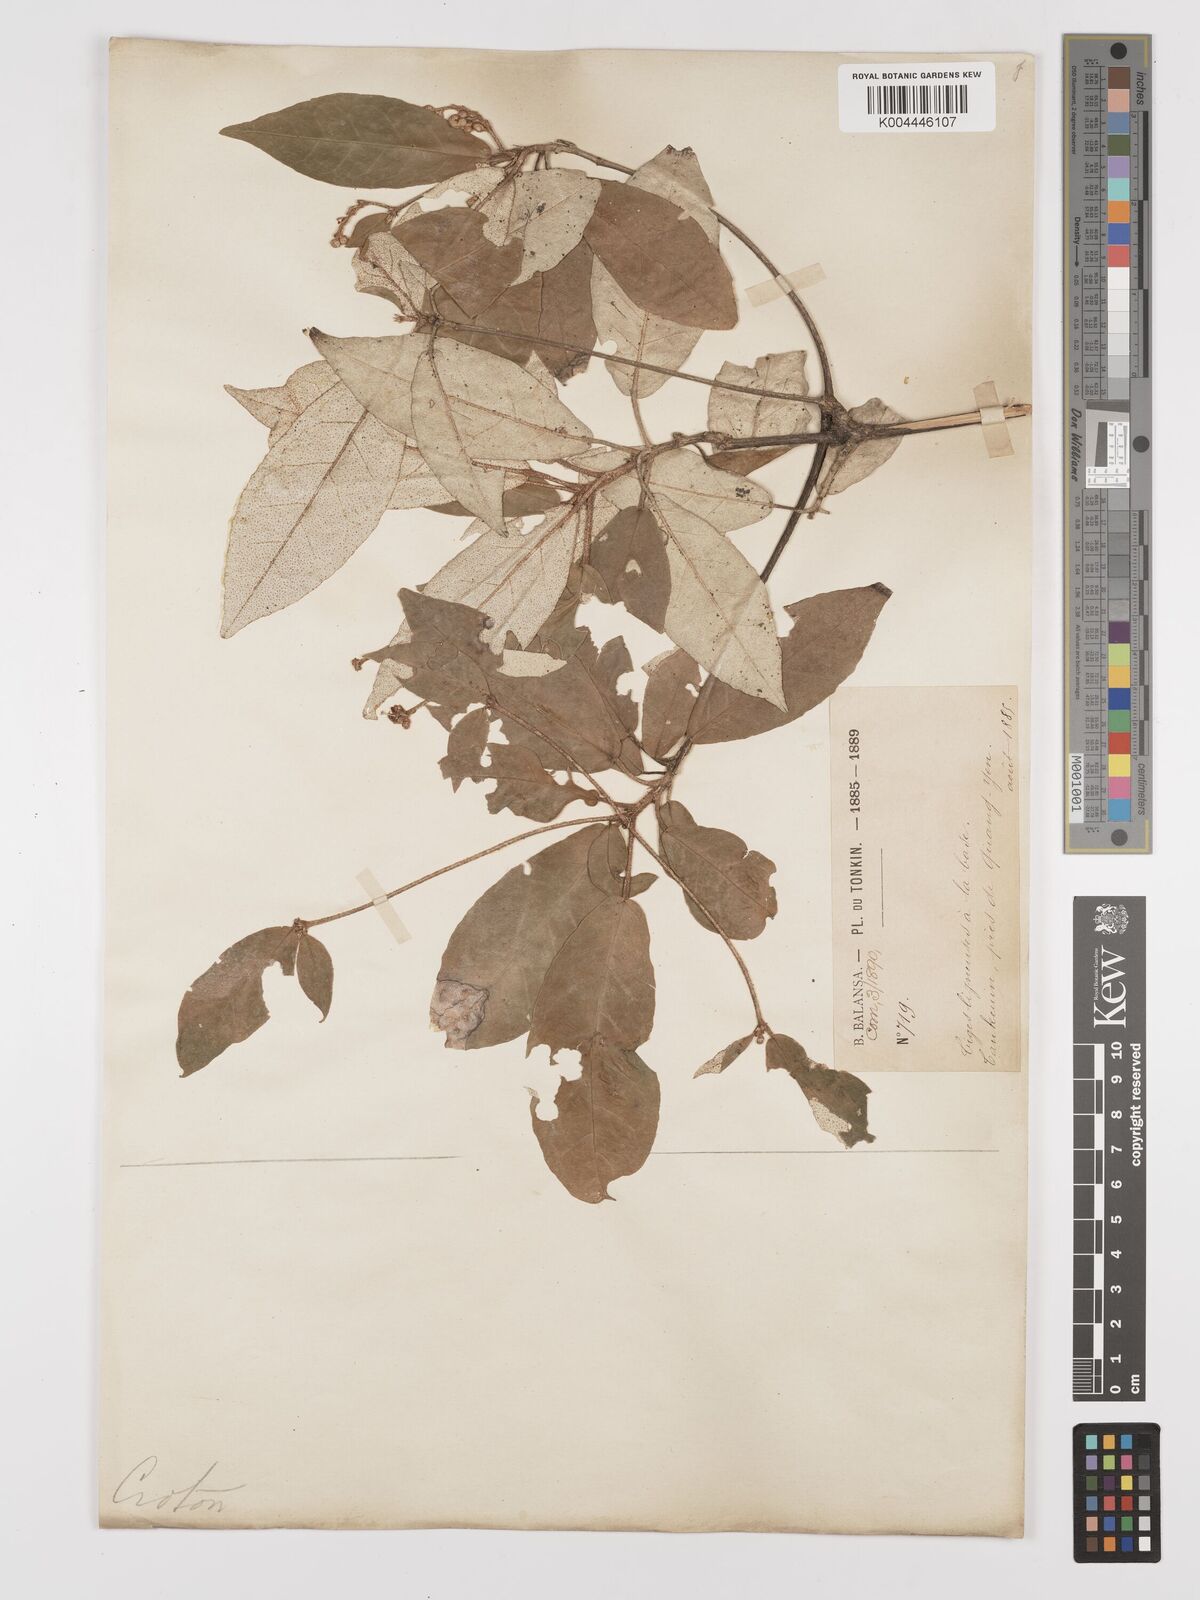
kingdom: Plantae
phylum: Tracheophyta
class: Magnoliopsida
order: Malpighiales
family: Euphorbiaceae
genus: Croton
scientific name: Croton cascarilloides
